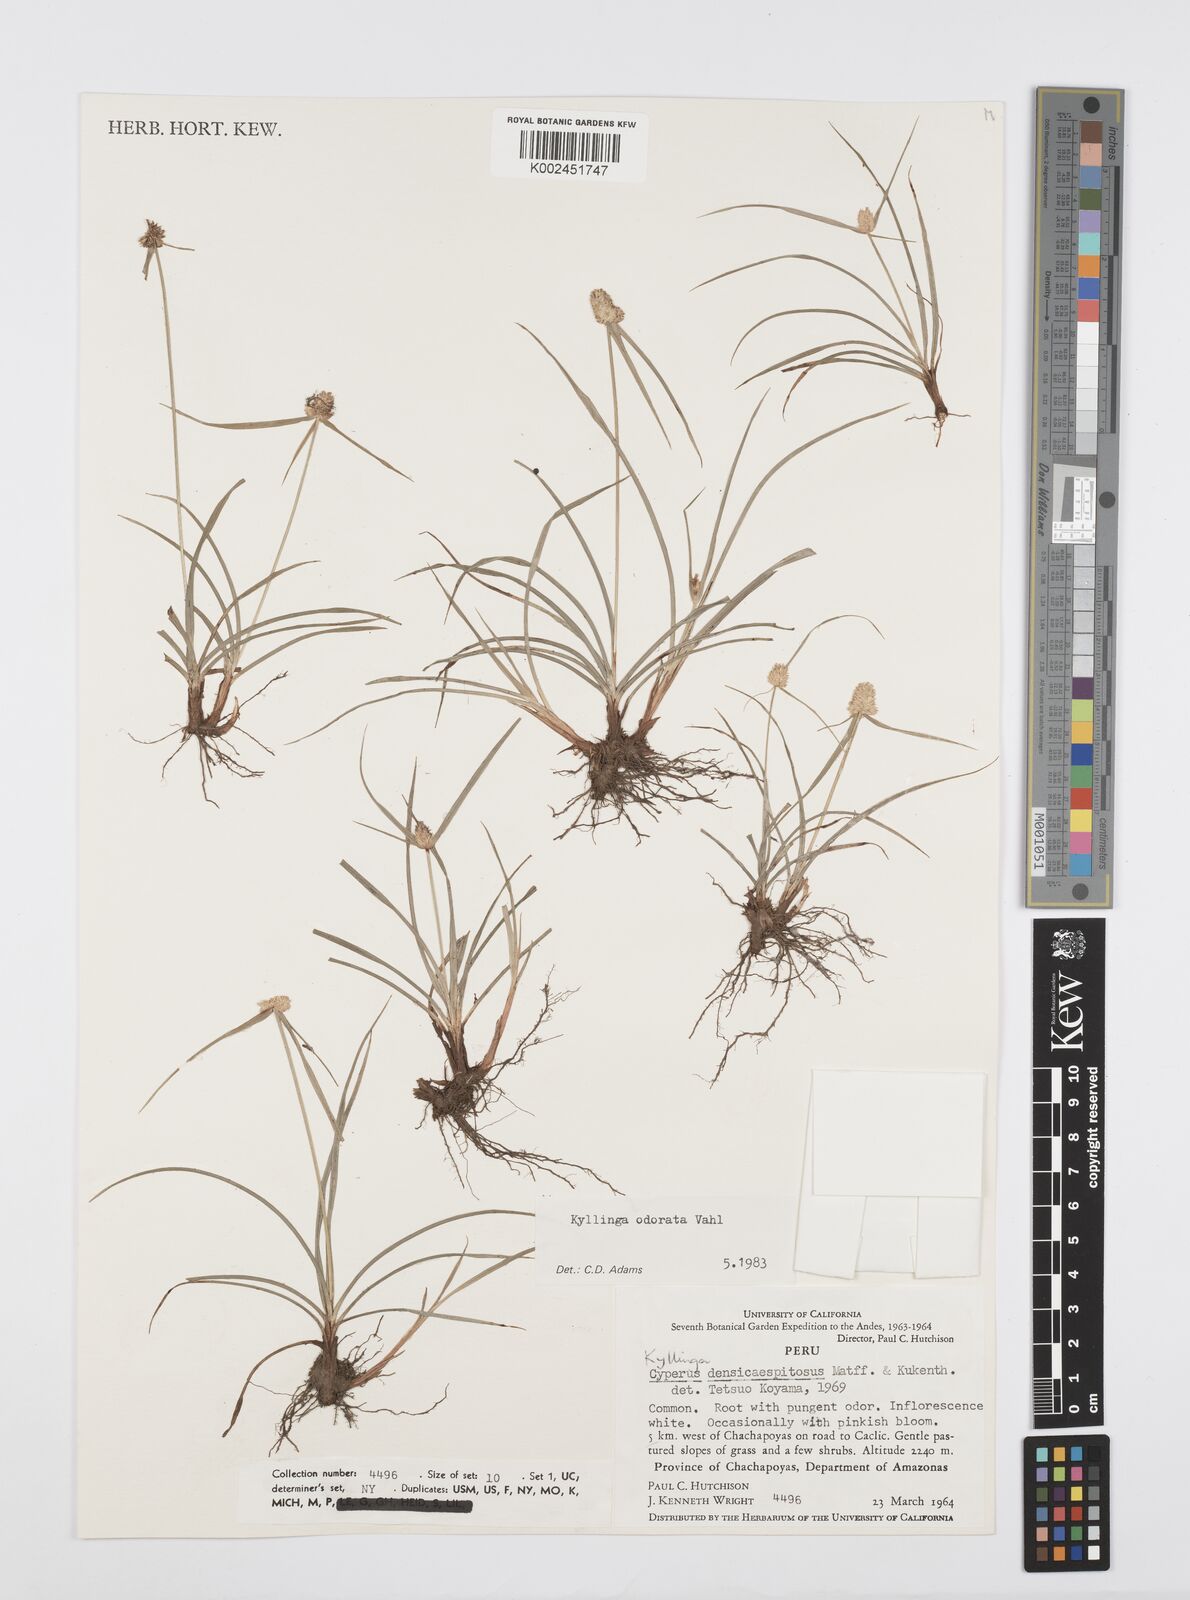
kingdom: Plantae
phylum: Tracheophyta
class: Liliopsida
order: Poales
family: Cyperaceae
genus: Cyperus
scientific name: Cyperus
